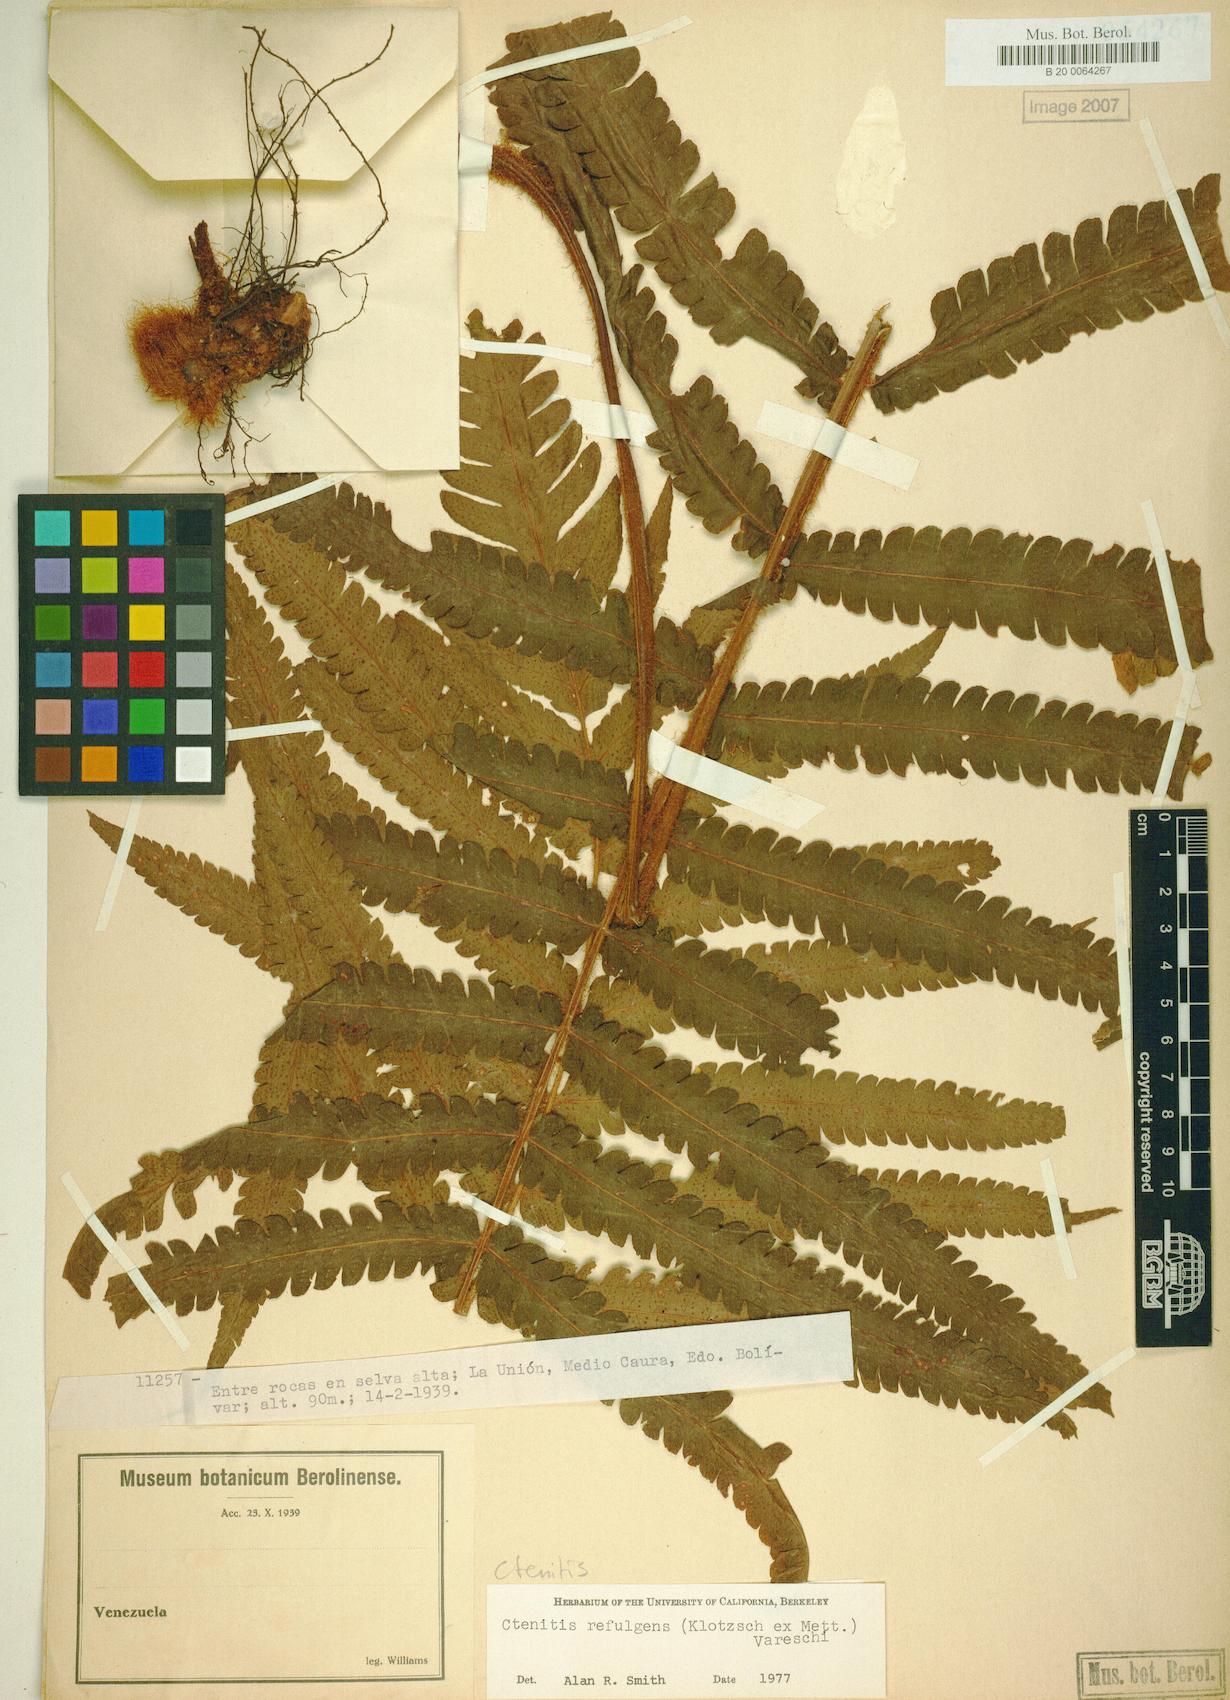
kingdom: Plantae
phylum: Tracheophyta
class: Polypodiopsida
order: Polypodiales
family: Dryopteridaceae
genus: Ctenitis
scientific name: Ctenitis refulgens
